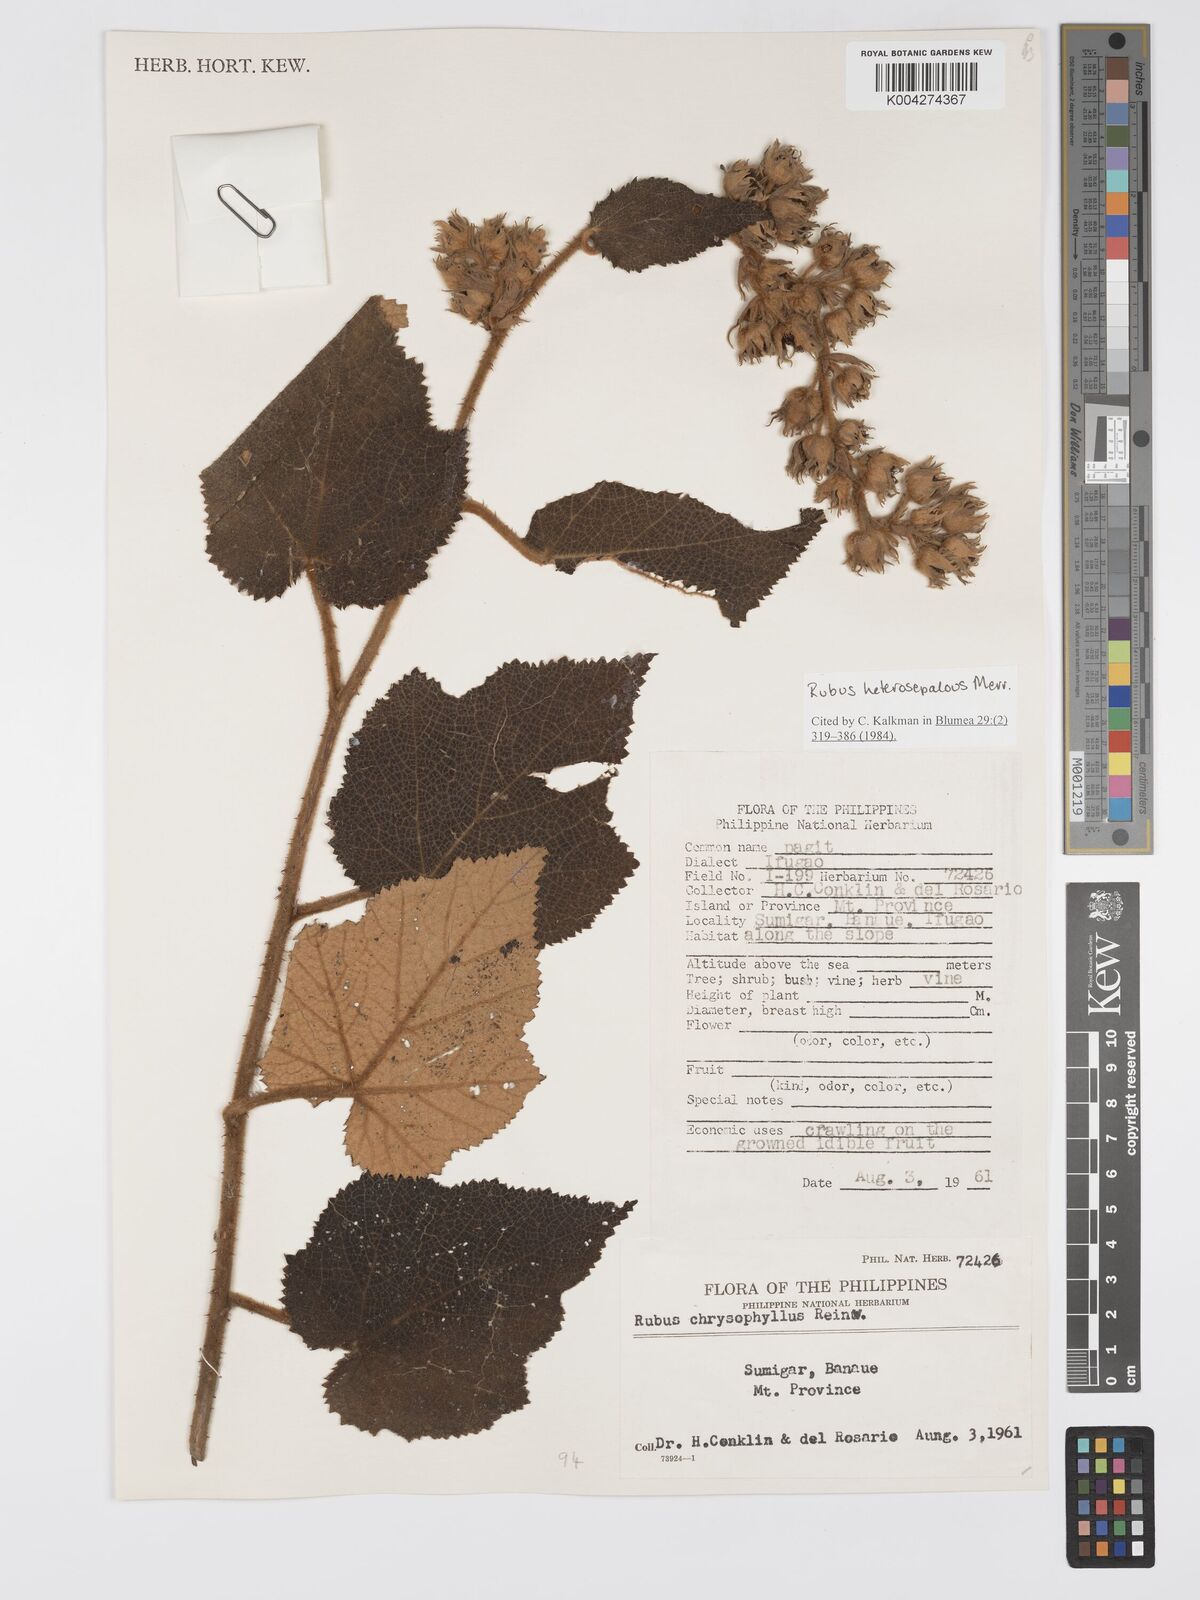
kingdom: Plantae
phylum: Tracheophyta
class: Magnoliopsida
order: Rosales
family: Rosaceae
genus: Rubus
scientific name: Rubus heterosepalus
